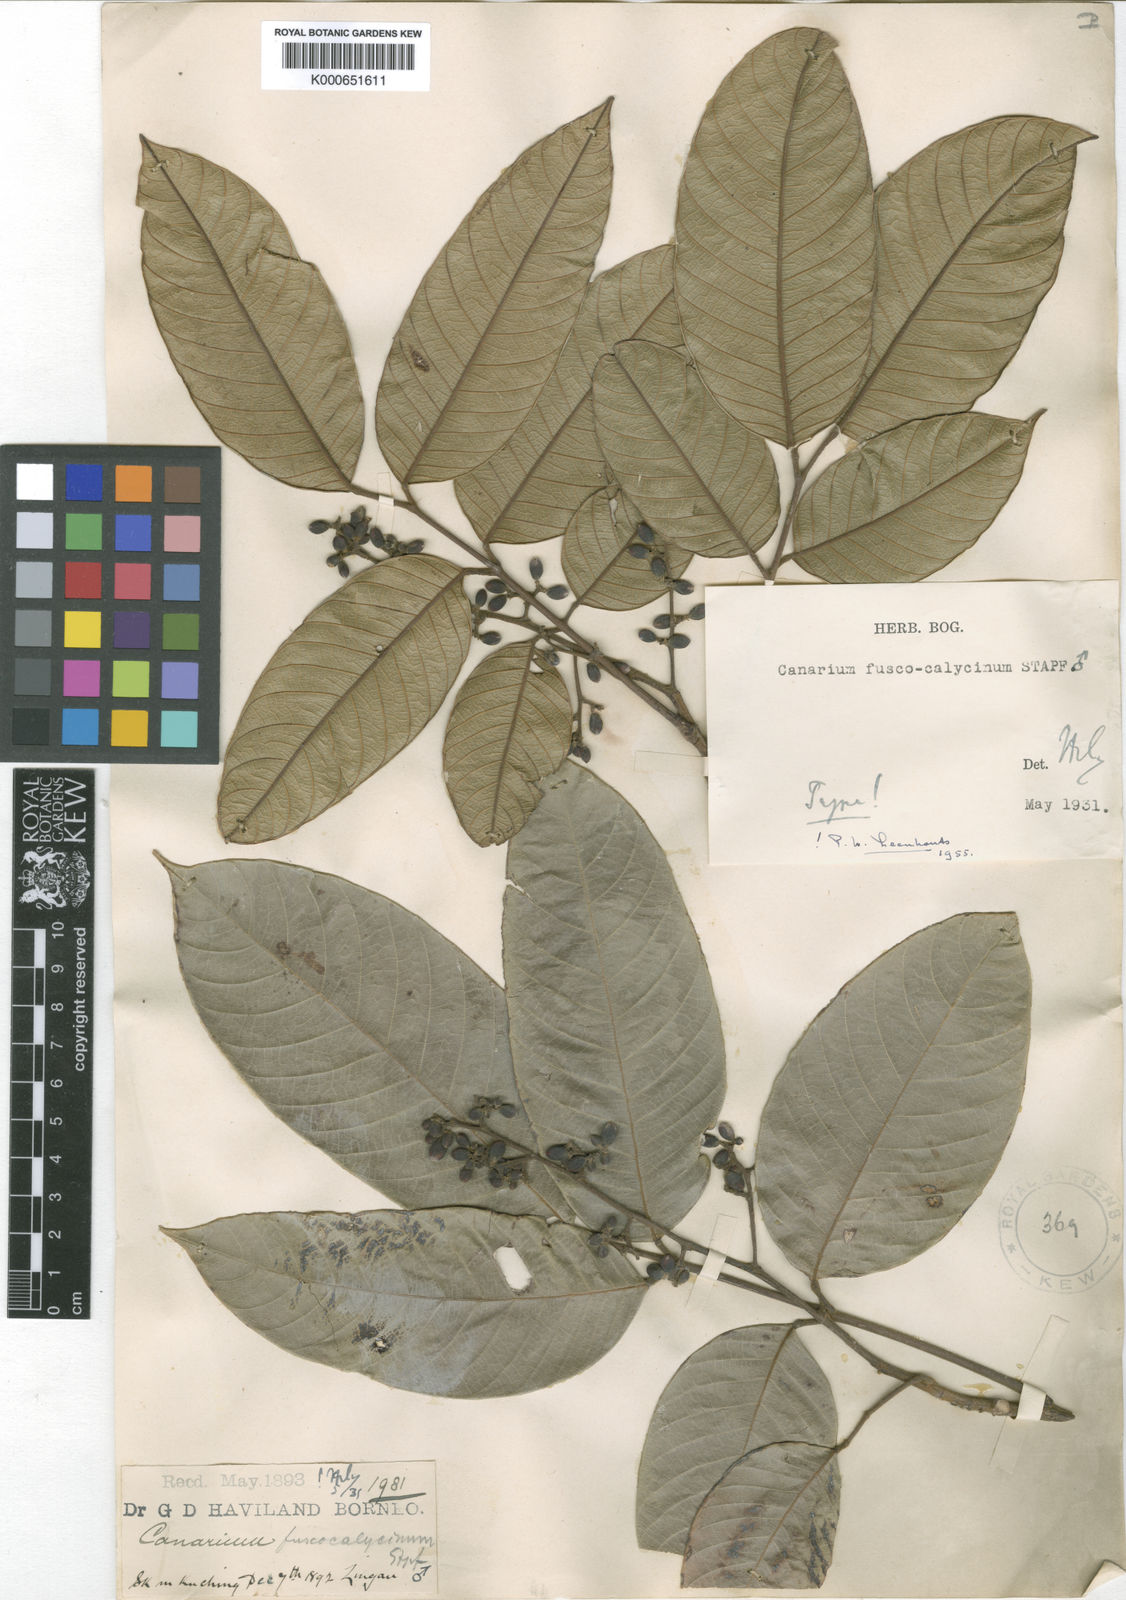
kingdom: Plantae
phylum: Tracheophyta
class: Magnoliopsida
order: Sapindales
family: Burseraceae
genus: Canarium
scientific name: Canarium fuscocalycinum
